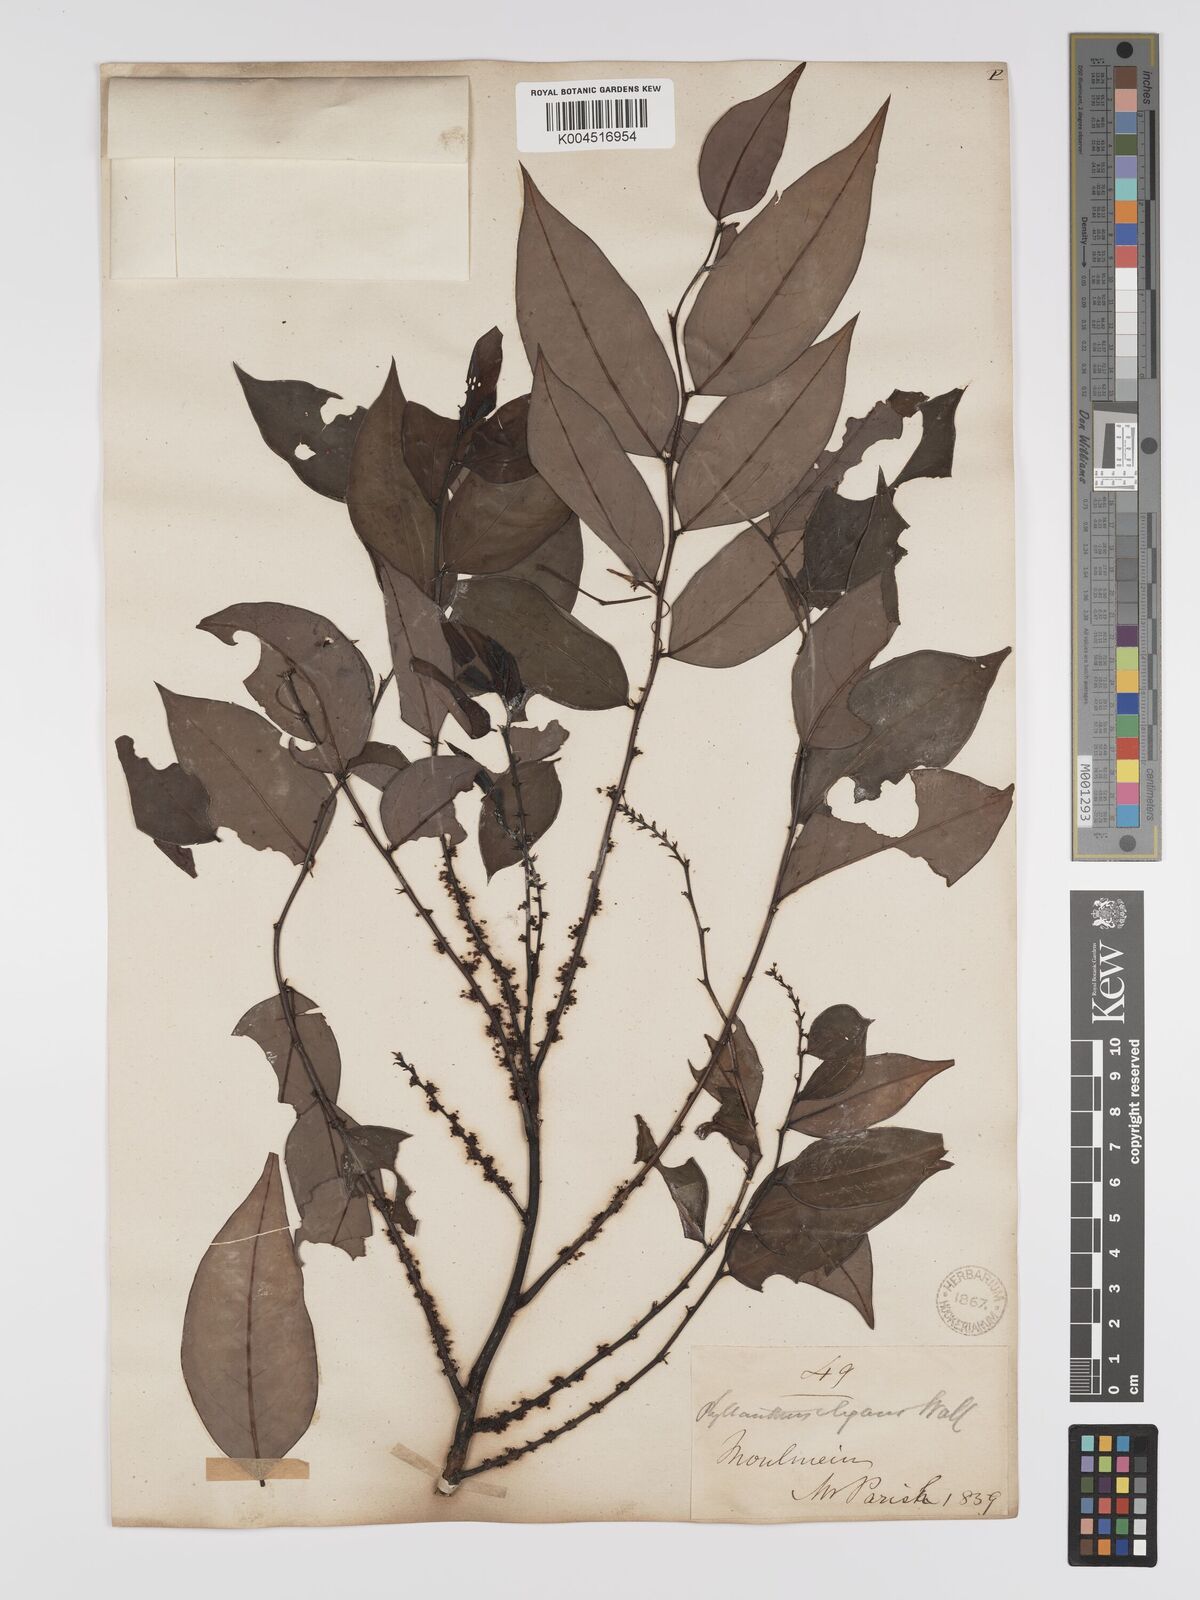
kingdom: Plantae
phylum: Tracheophyta
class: Magnoliopsida
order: Malpighiales
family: Phyllanthaceae
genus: Phyllanthus
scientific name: Phyllanthus elegans
